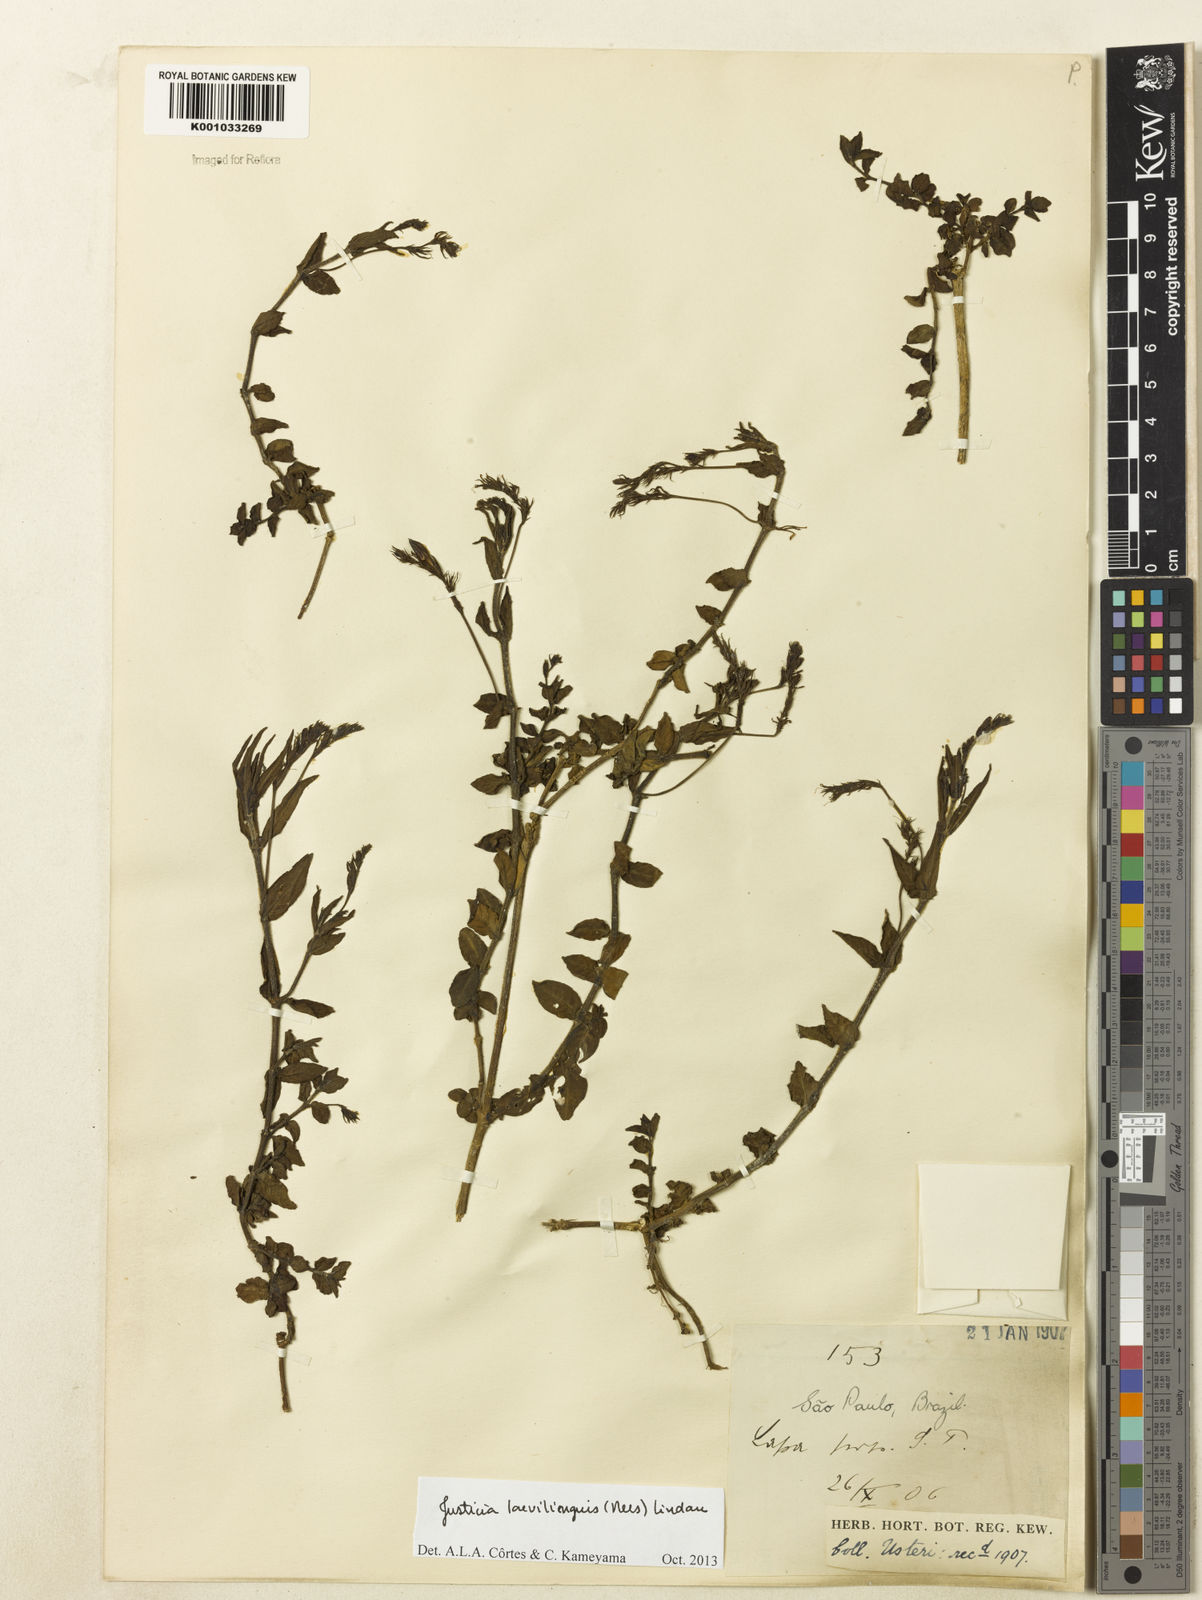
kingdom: Plantae
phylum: Tracheophyta
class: Magnoliopsida
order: Lamiales
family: Acanthaceae
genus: Dianthera
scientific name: Dianthera laevilinguis
